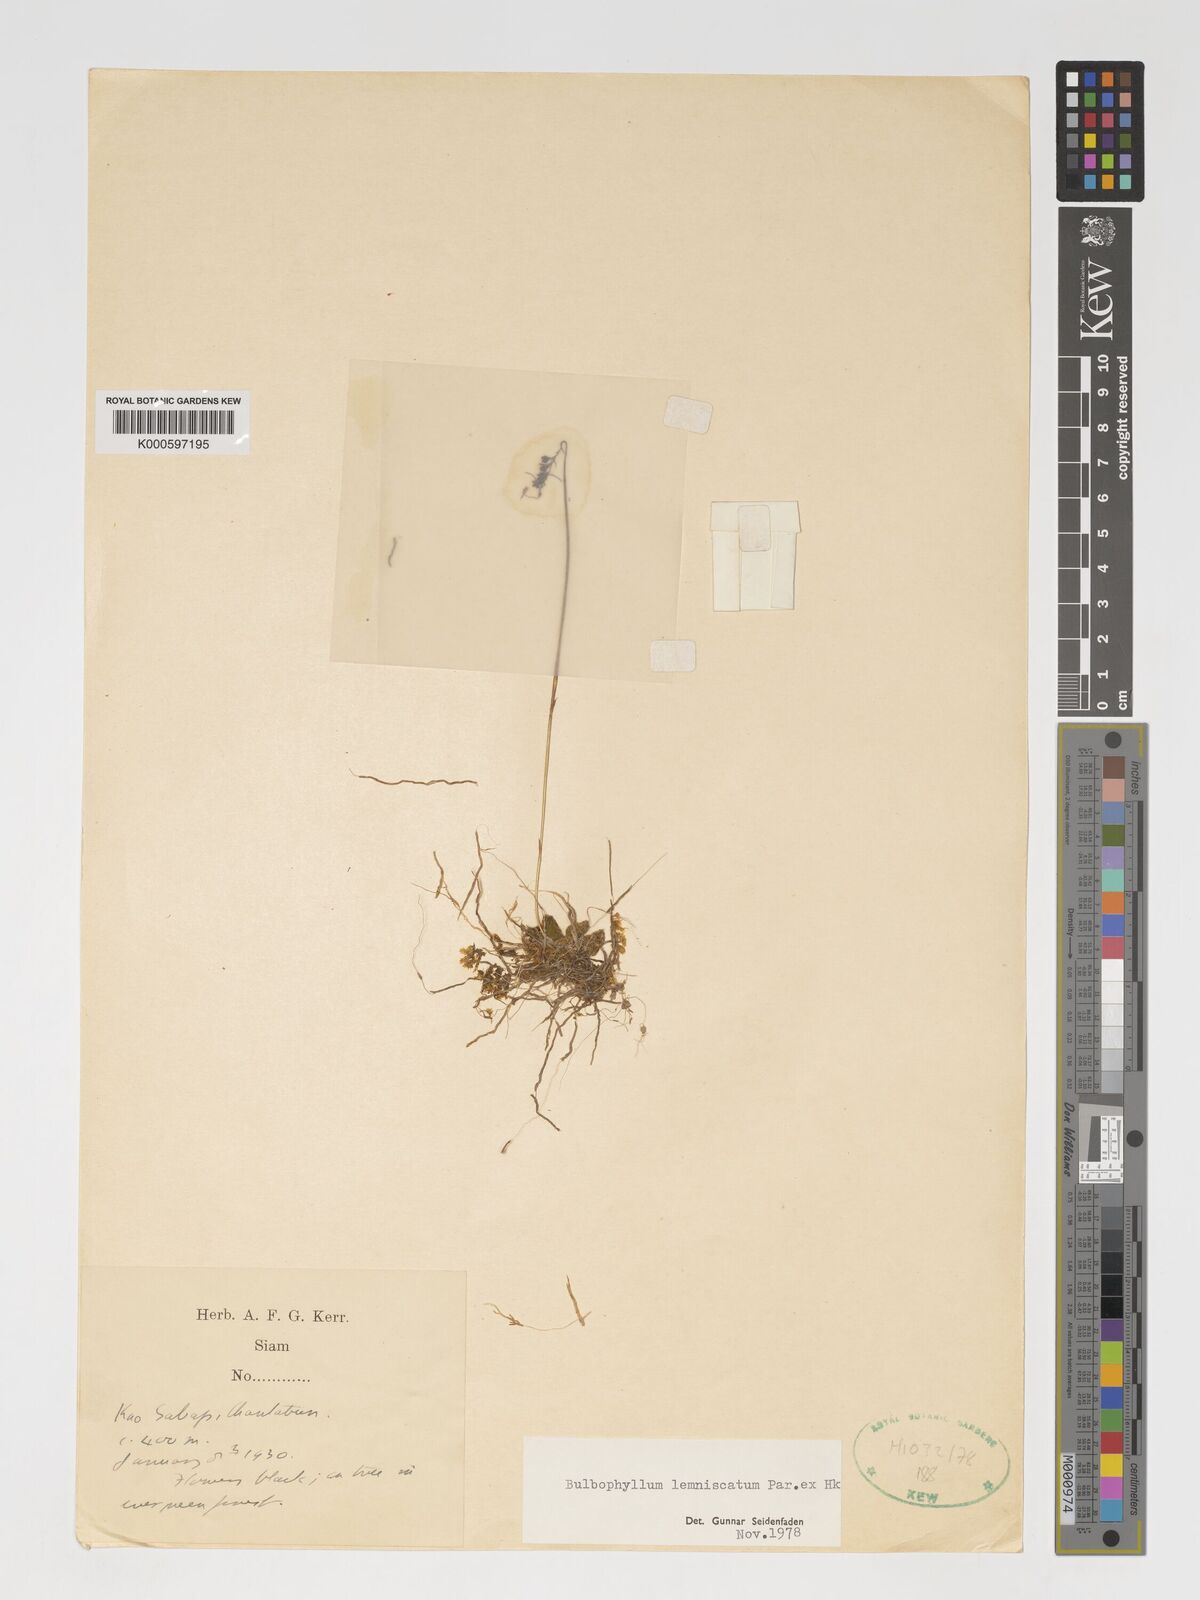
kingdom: Plantae
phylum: Tracheophyta
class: Liliopsida
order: Asparagales
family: Orchidaceae
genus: Bulbophyllum
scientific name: Bulbophyllum lemniscatum
